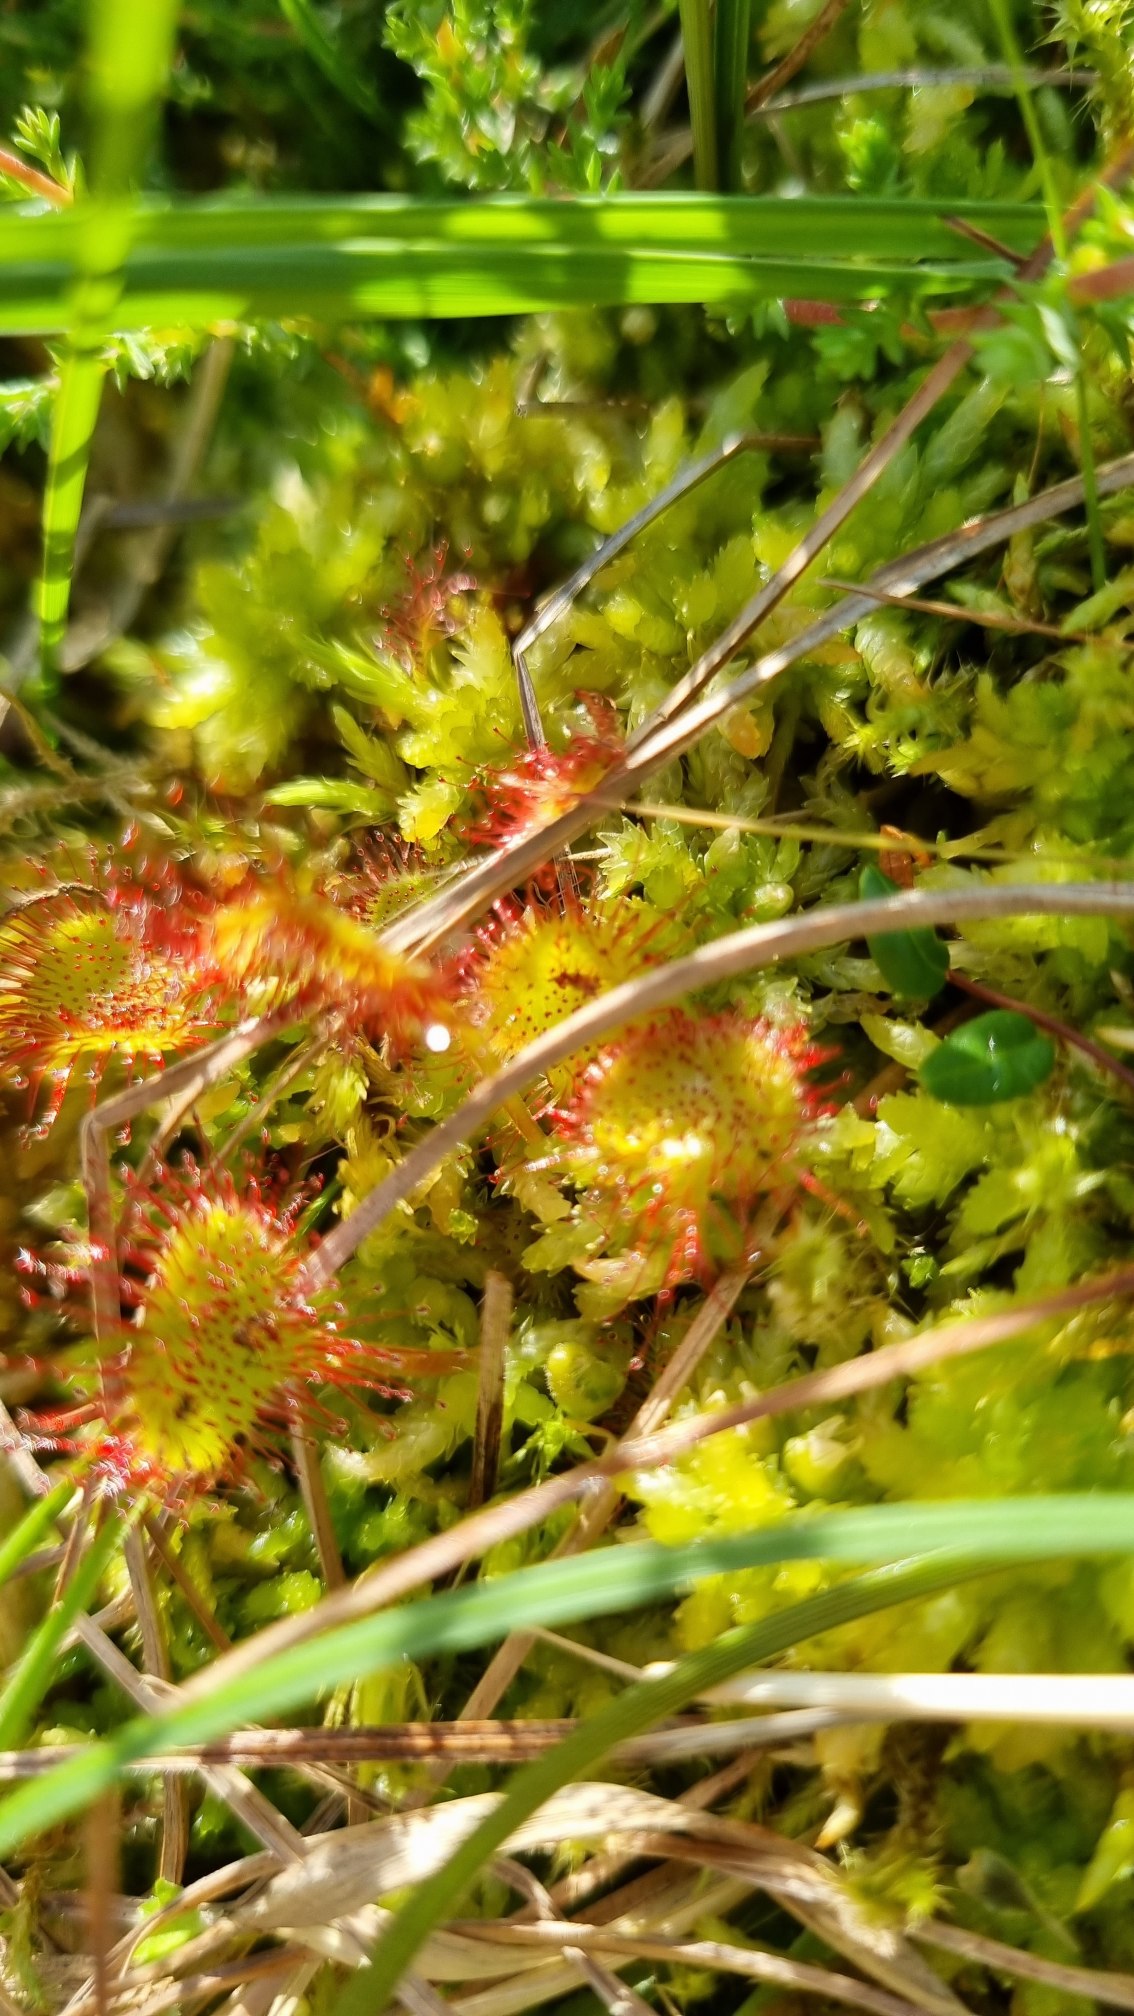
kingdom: Plantae
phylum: Tracheophyta
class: Magnoliopsida
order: Caryophyllales
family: Droseraceae
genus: Drosera
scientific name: Drosera rotundifolia
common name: Rundbladet soldug
